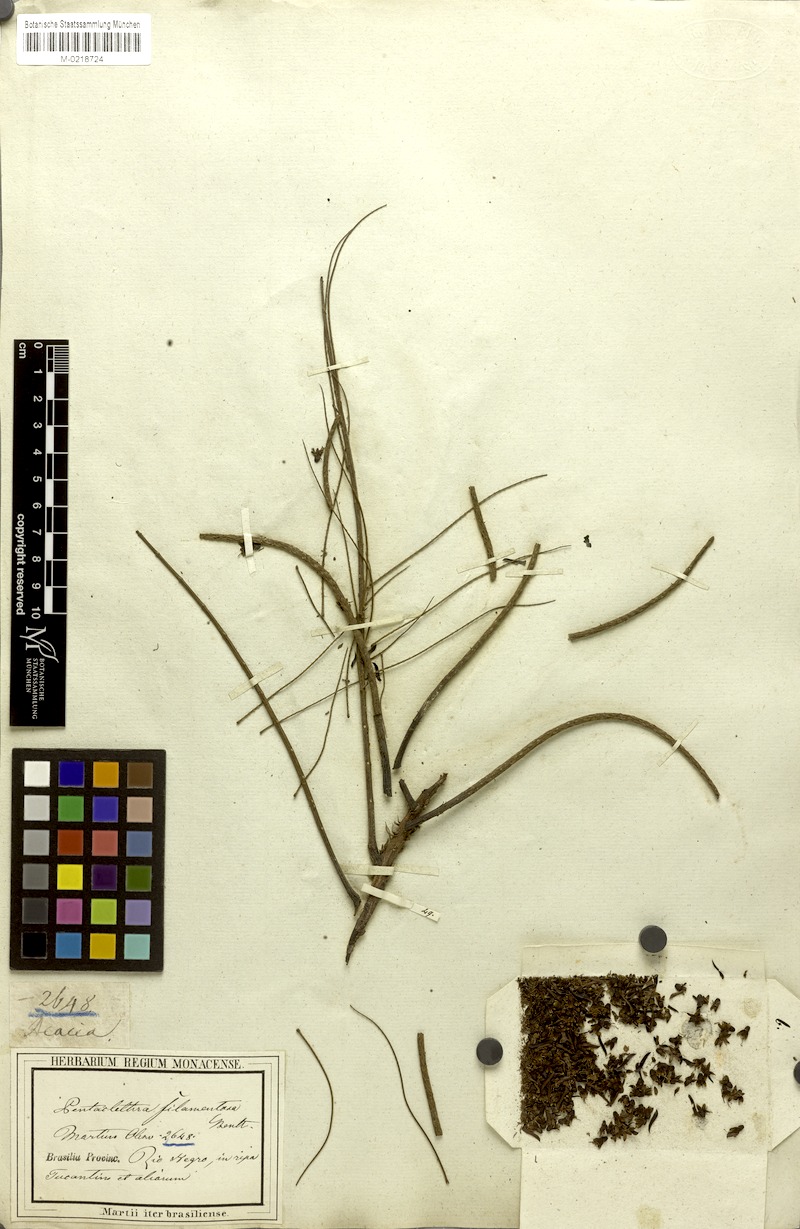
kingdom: Plantae
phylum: Tracheophyta
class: Magnoliopsida
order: Fabales
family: Fabaceae
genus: Pentaclethra
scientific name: Pentaclethra macroloba
